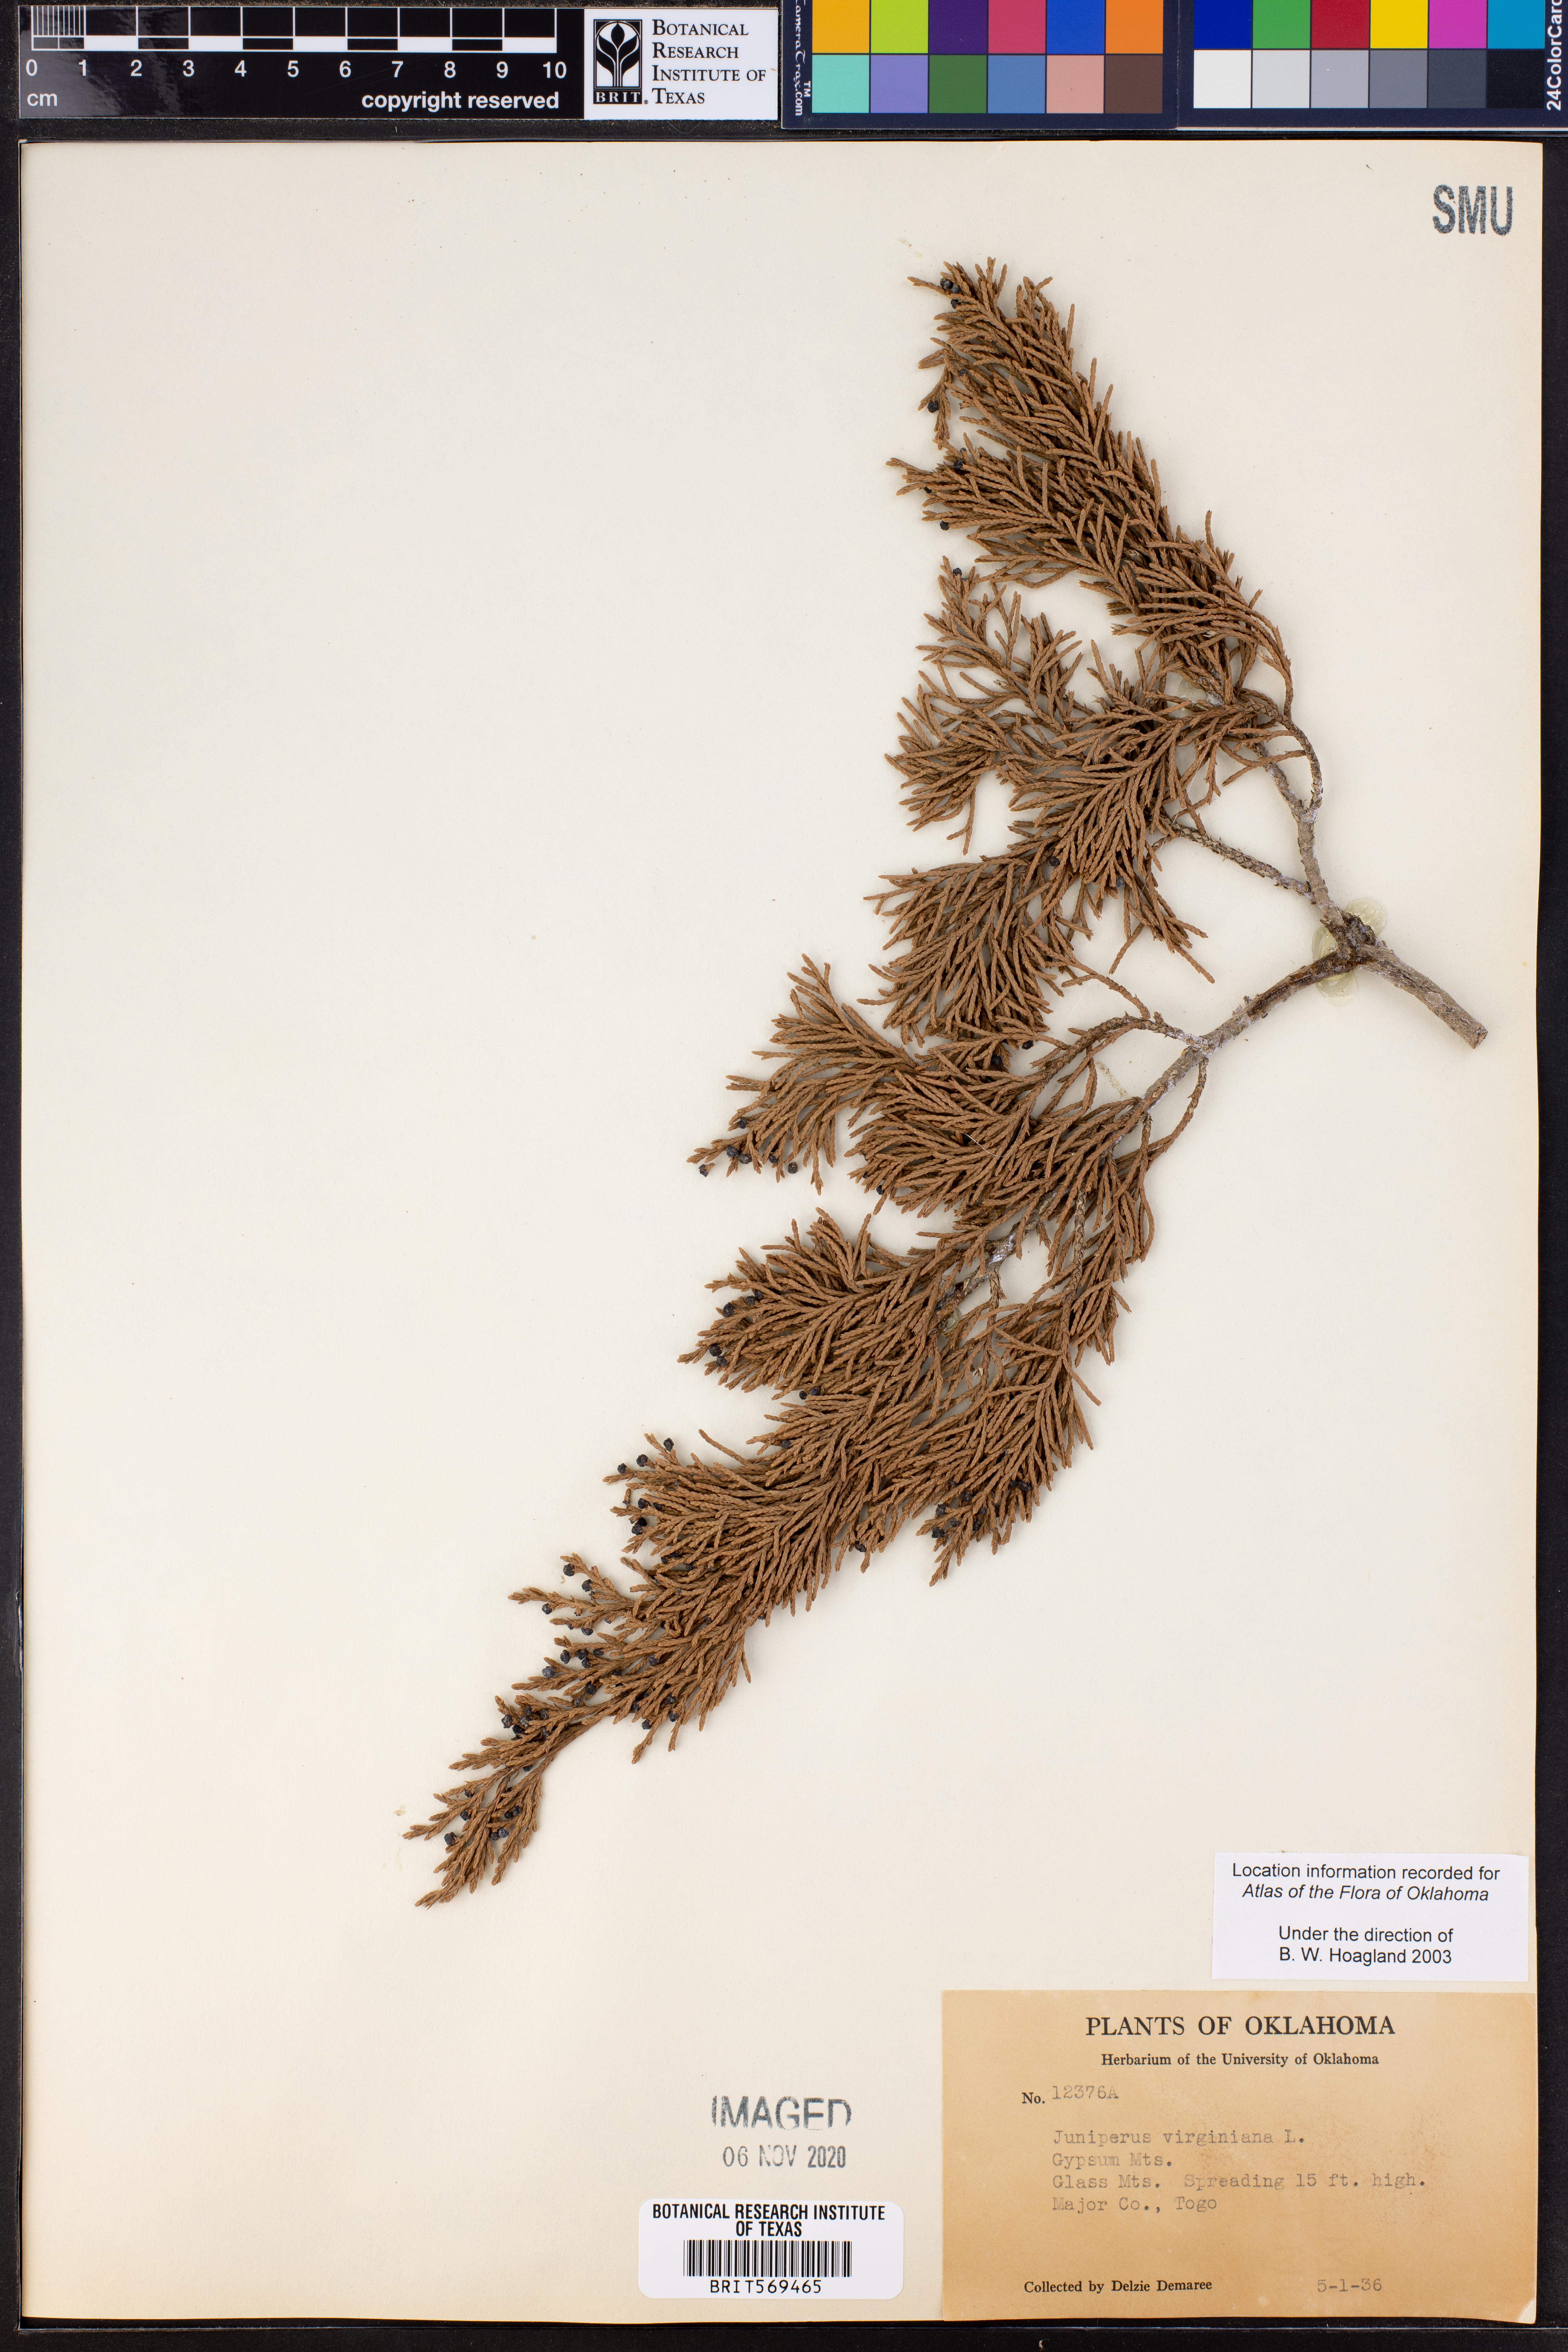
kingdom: Plantae
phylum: Tracheophyta
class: Pinopsida
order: Pinales
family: Cupressaceae
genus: Juniperus
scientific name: Juniperus virginiana
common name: Red juniper
